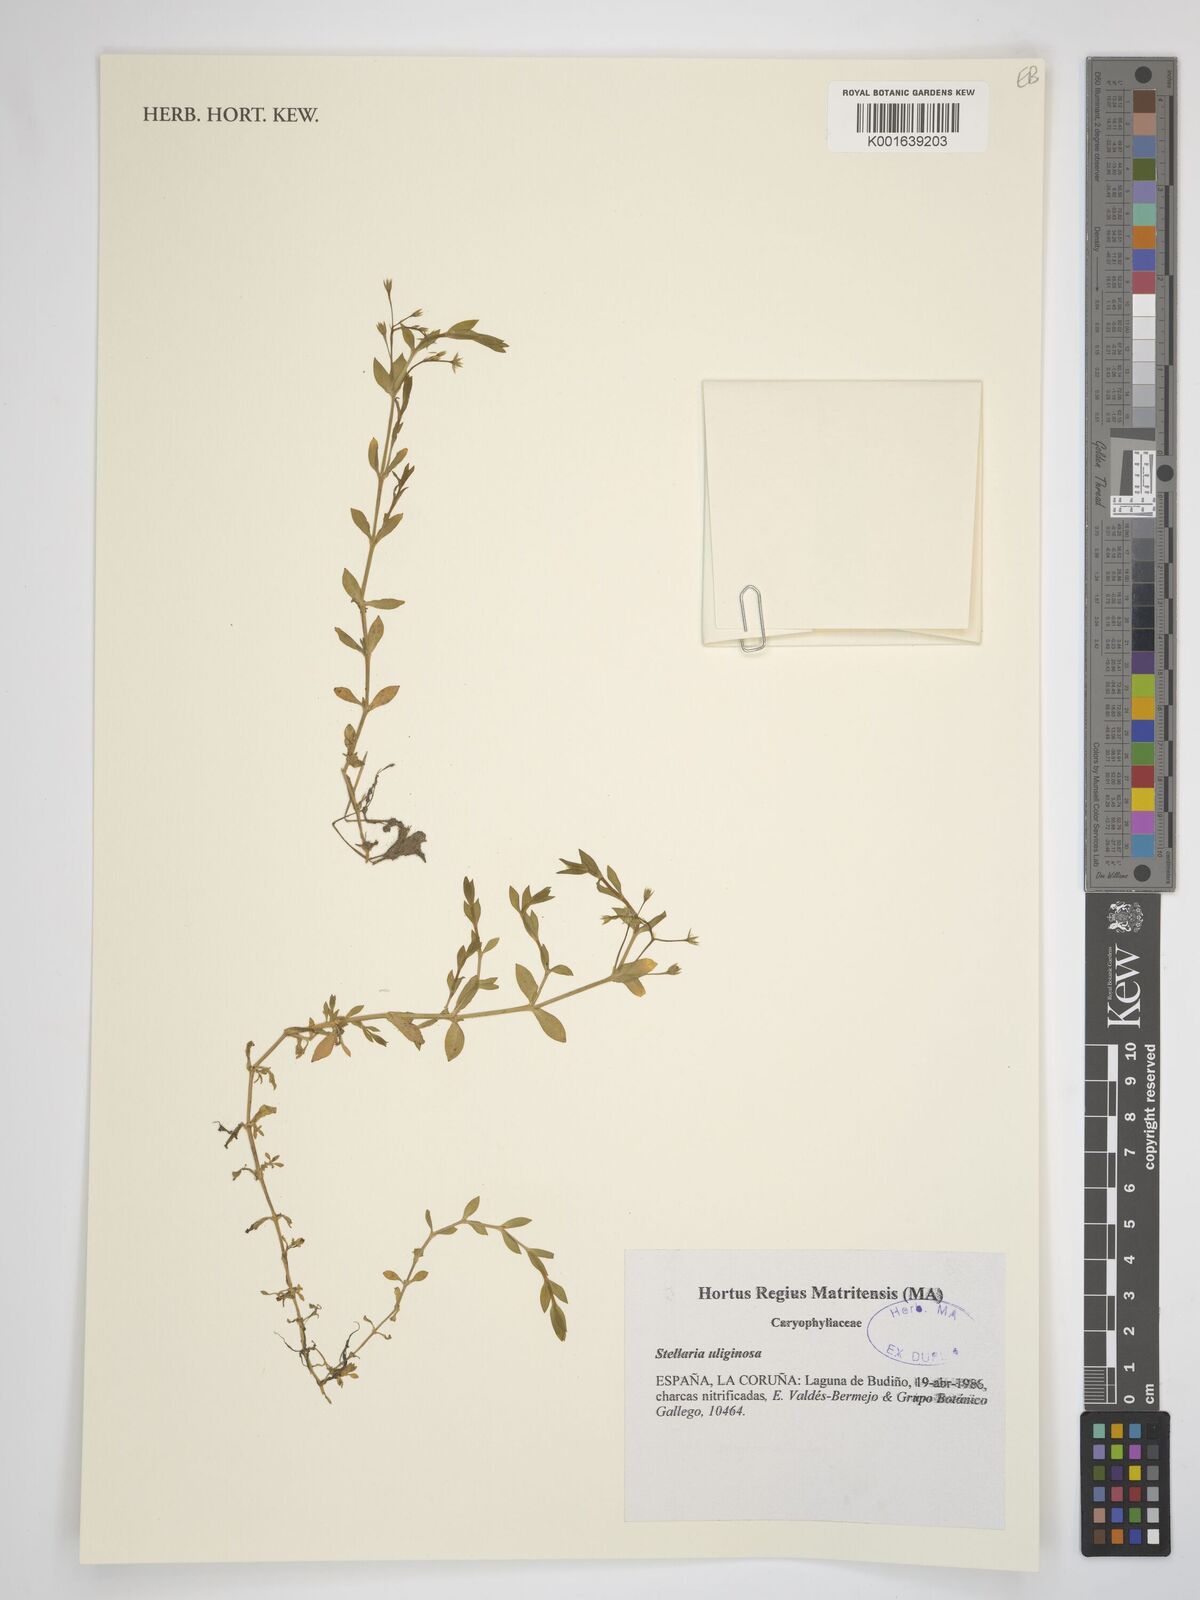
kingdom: Plantae
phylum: Tracheophyta
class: Magnoliopsida
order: Caryophyllales
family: Caryophyllaceae
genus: Stellaria
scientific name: Stellaria alsine
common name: Bog stitchwort
